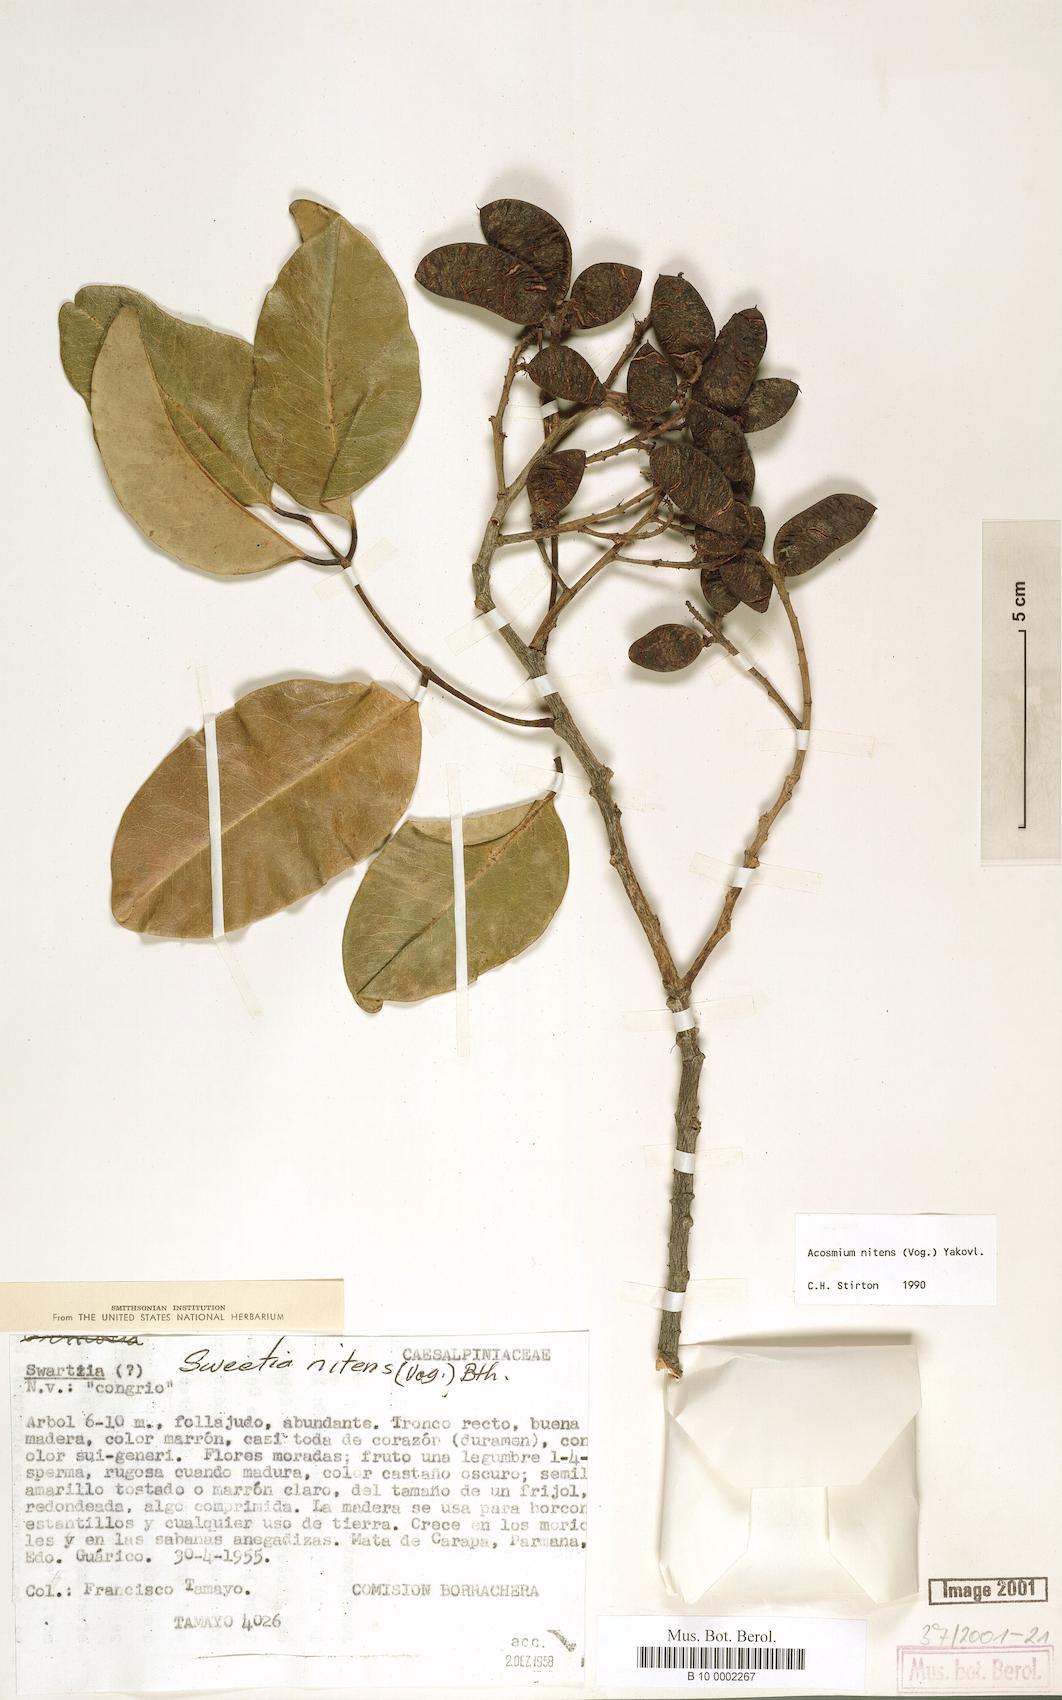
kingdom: Plantae
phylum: Tracheophyta
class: Magnoliopsida
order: Fabales
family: Fabaceae
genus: Leptolobium
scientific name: Leptolobium nitens
